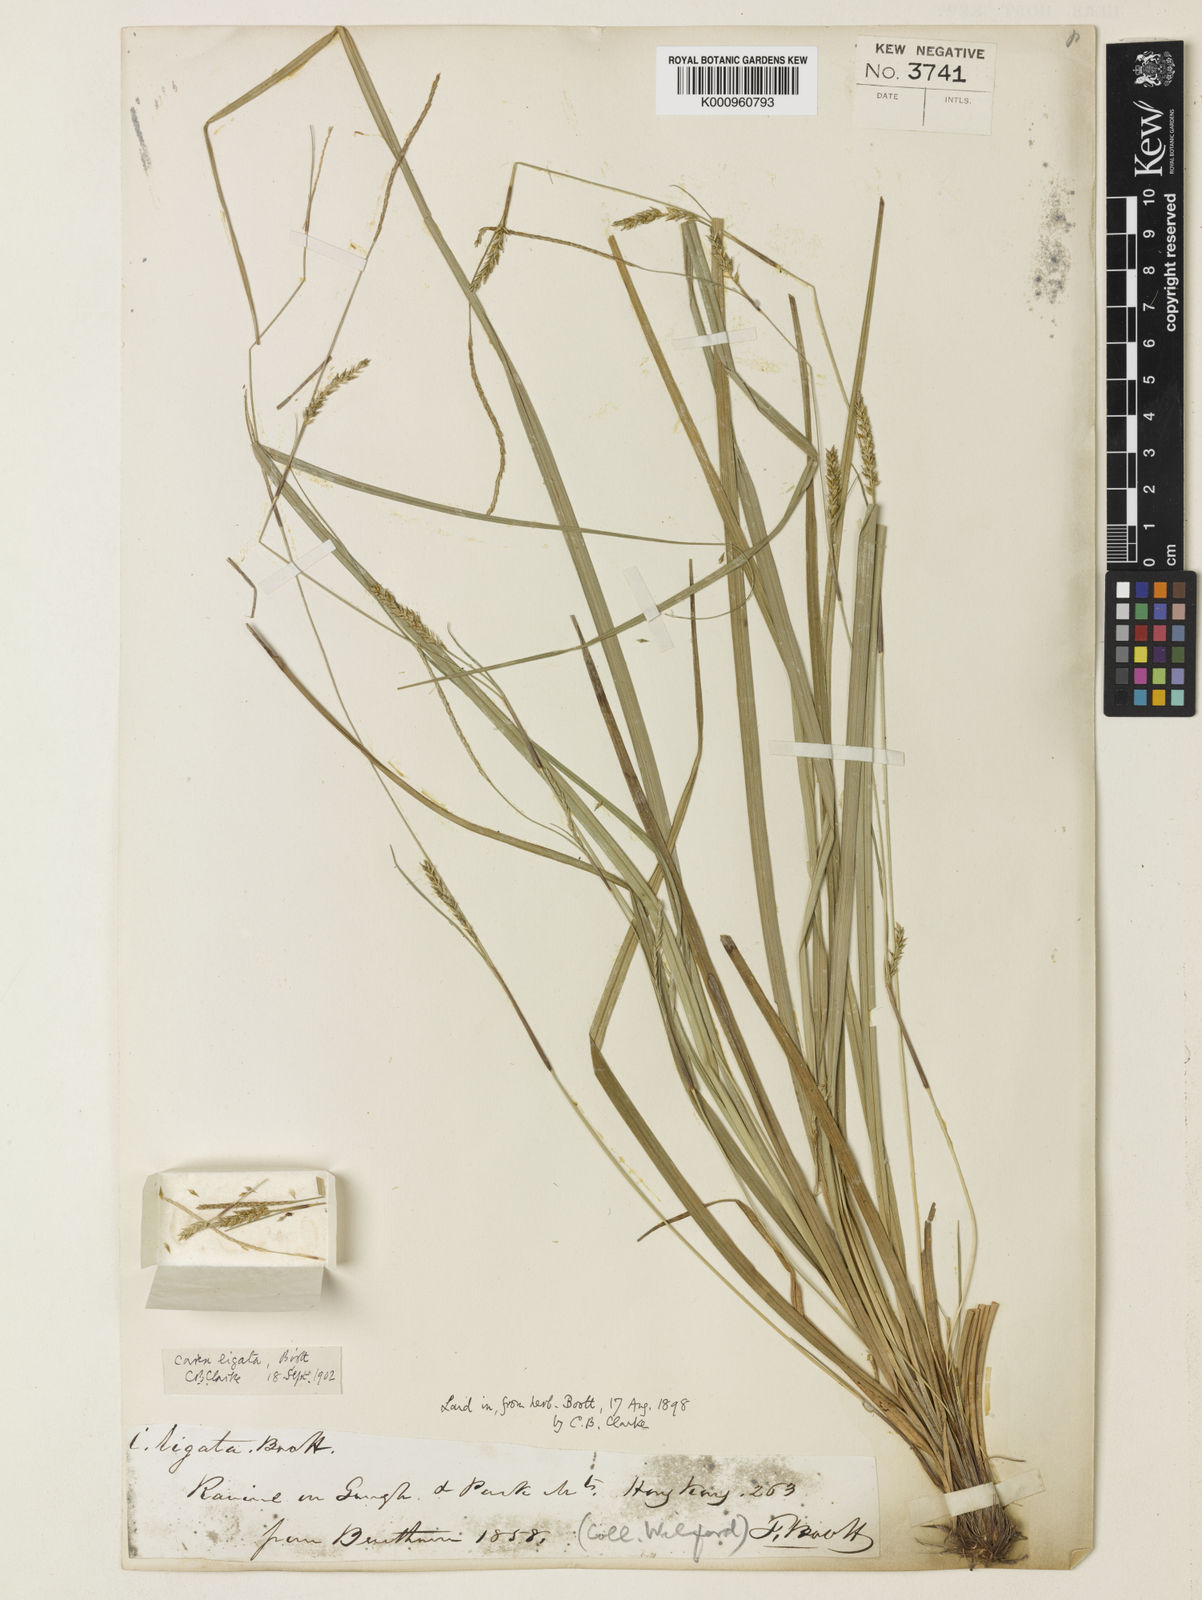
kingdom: Plantae
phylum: Tracheophyta
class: Liliopsida
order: Poales
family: Cyperaceae
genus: Carex
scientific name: Carex ligata
